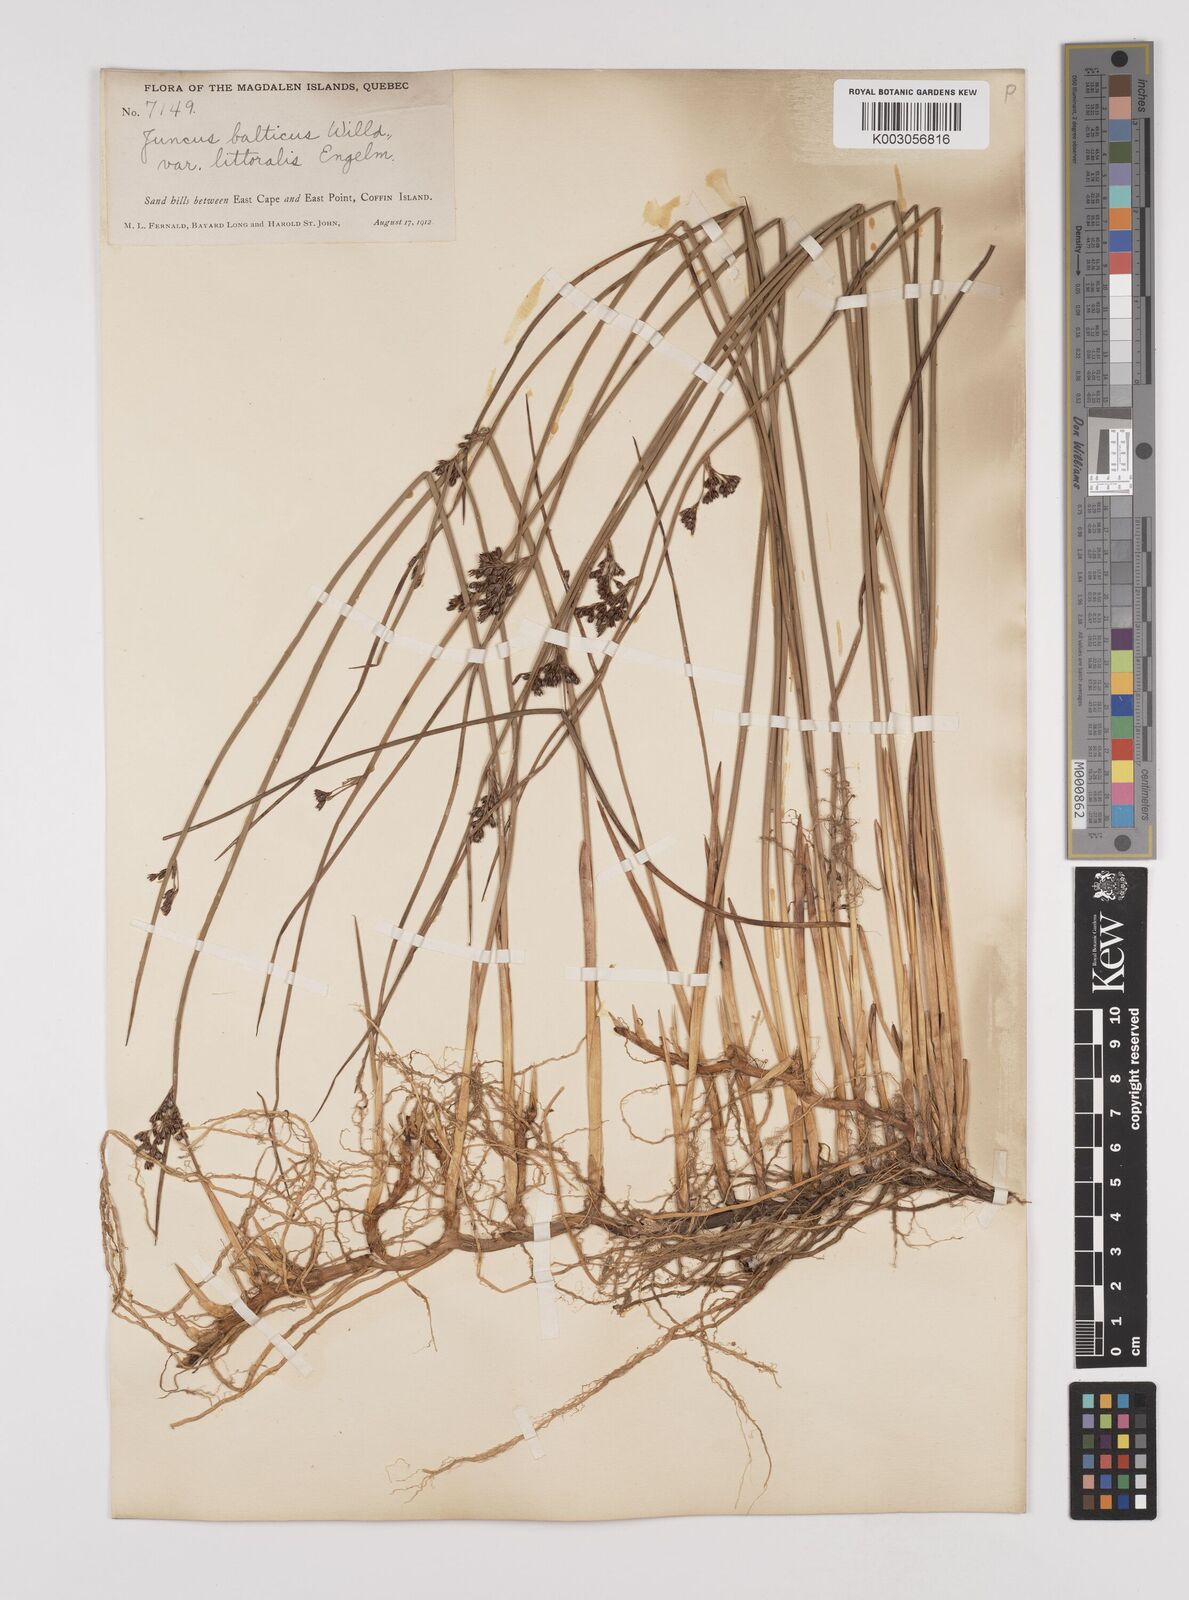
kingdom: Plantae
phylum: Tracheophyta
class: Liliopsida
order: Poales
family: Juncaceae
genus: Juncus
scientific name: Juncus balticus
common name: Baltic rush
